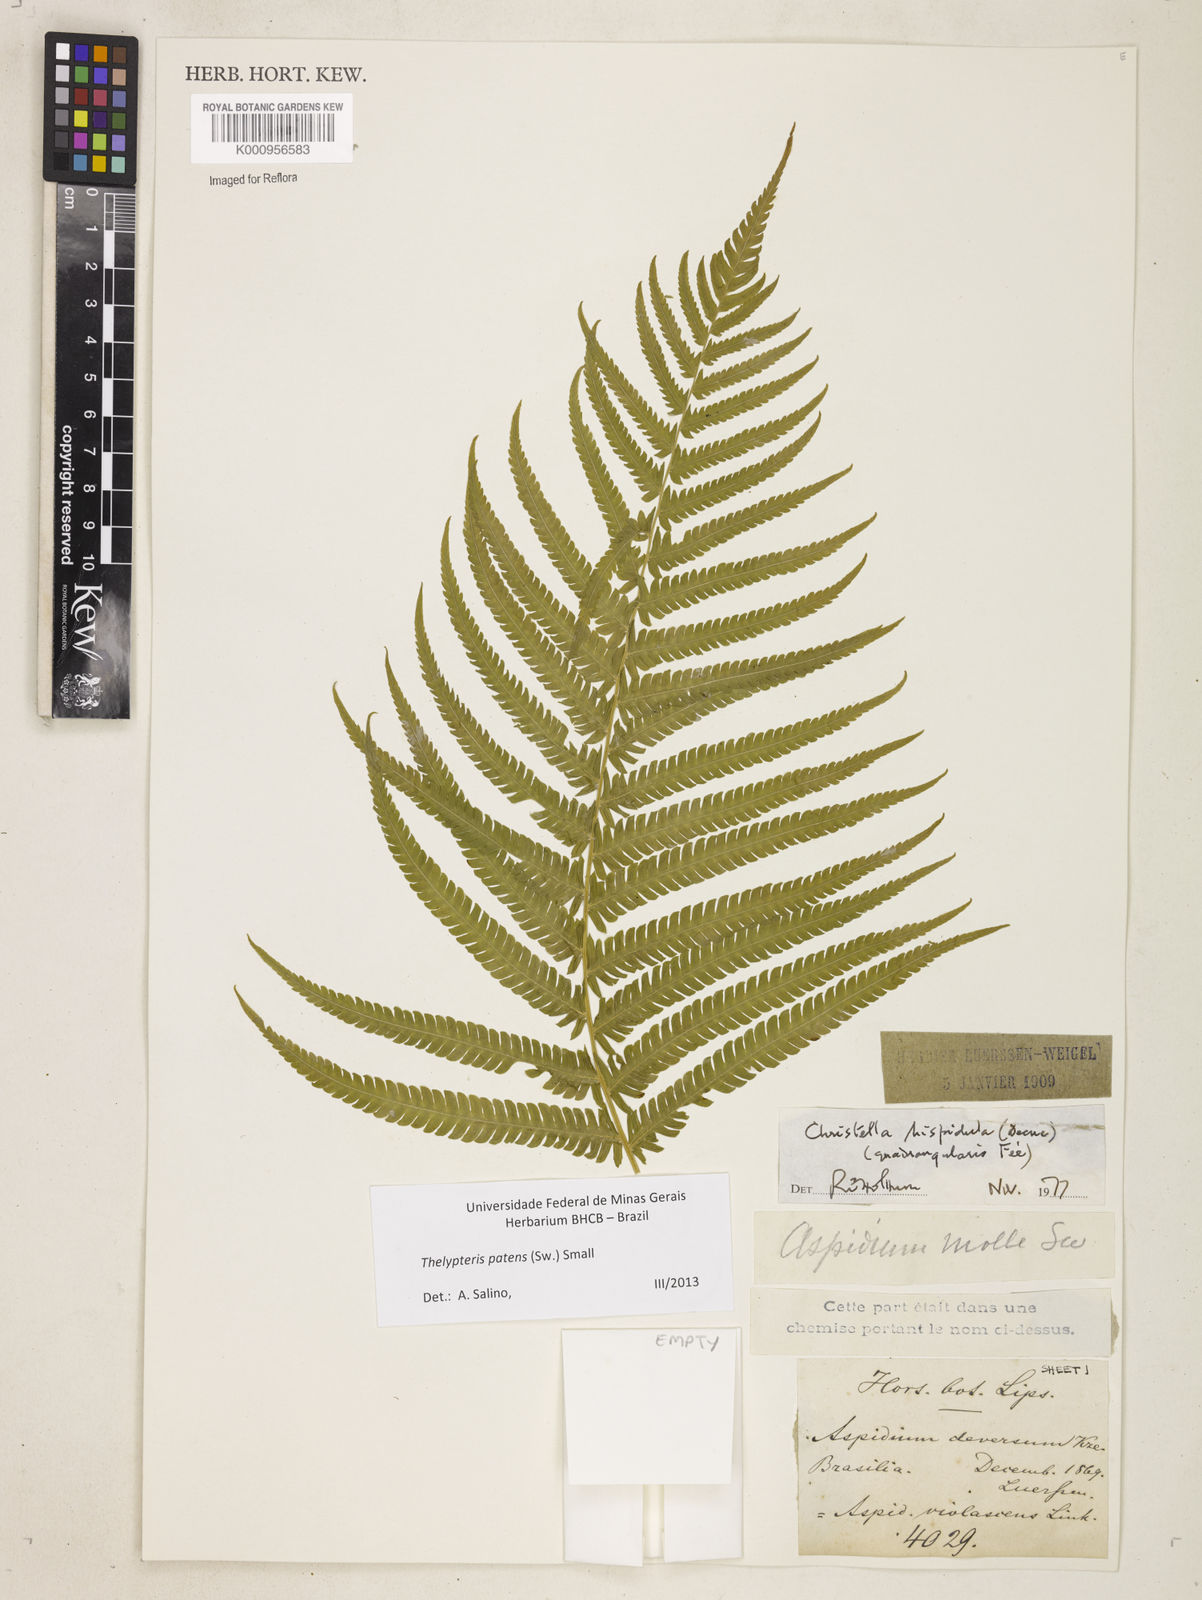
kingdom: Plantae
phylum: Tracheophyta
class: Polypodiopsida
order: Polypodiales
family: Thelypteridaceae
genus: Pelazoneuron
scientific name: Pelazoneuron patens
